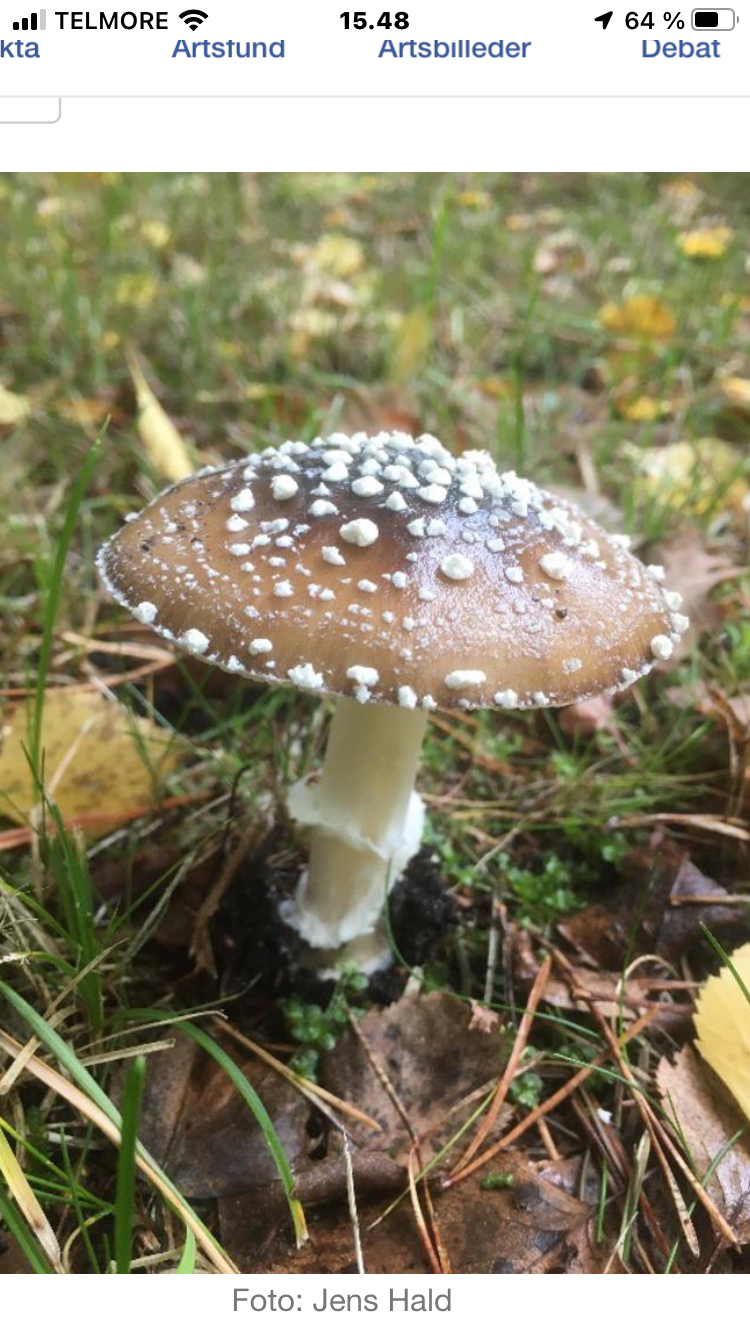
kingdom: Fungi
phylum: Basidiomycota
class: Agaricomycetes
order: Agaricales
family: Amanitaceae
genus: Amanita
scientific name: Amanita pantherina
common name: panter-fluesvamp
